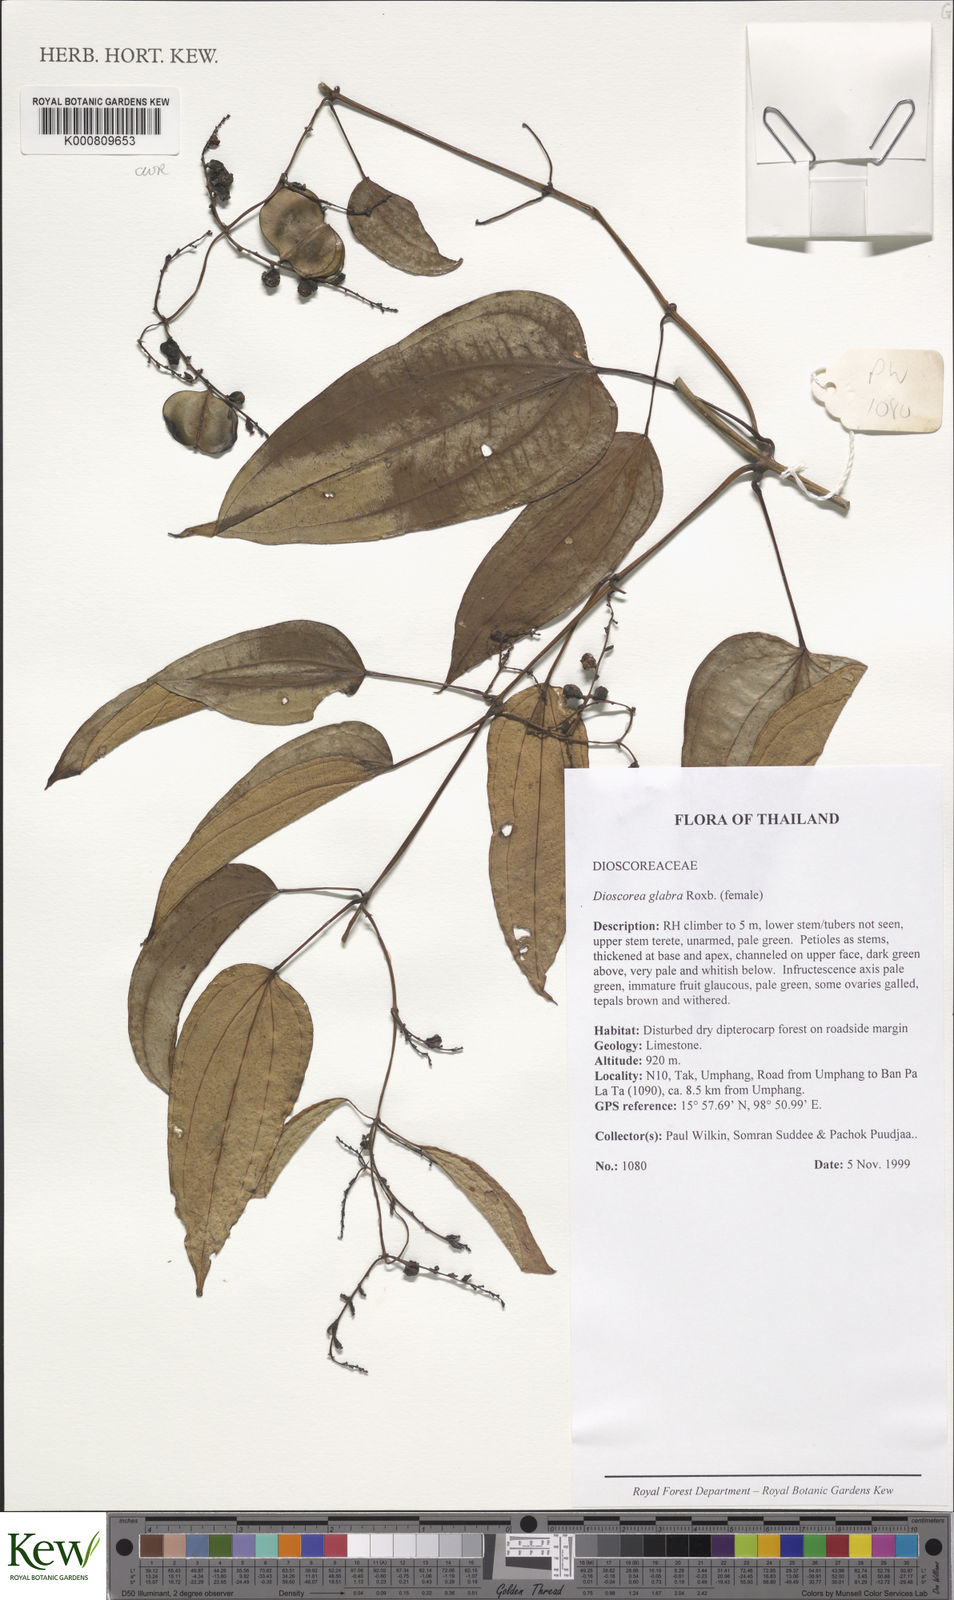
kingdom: Plantae
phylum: Tracheophyta
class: Liliopsida
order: Dioscoreales
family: Dioscoreaceae
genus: Dioscorea
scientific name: Dioscorea glabra
